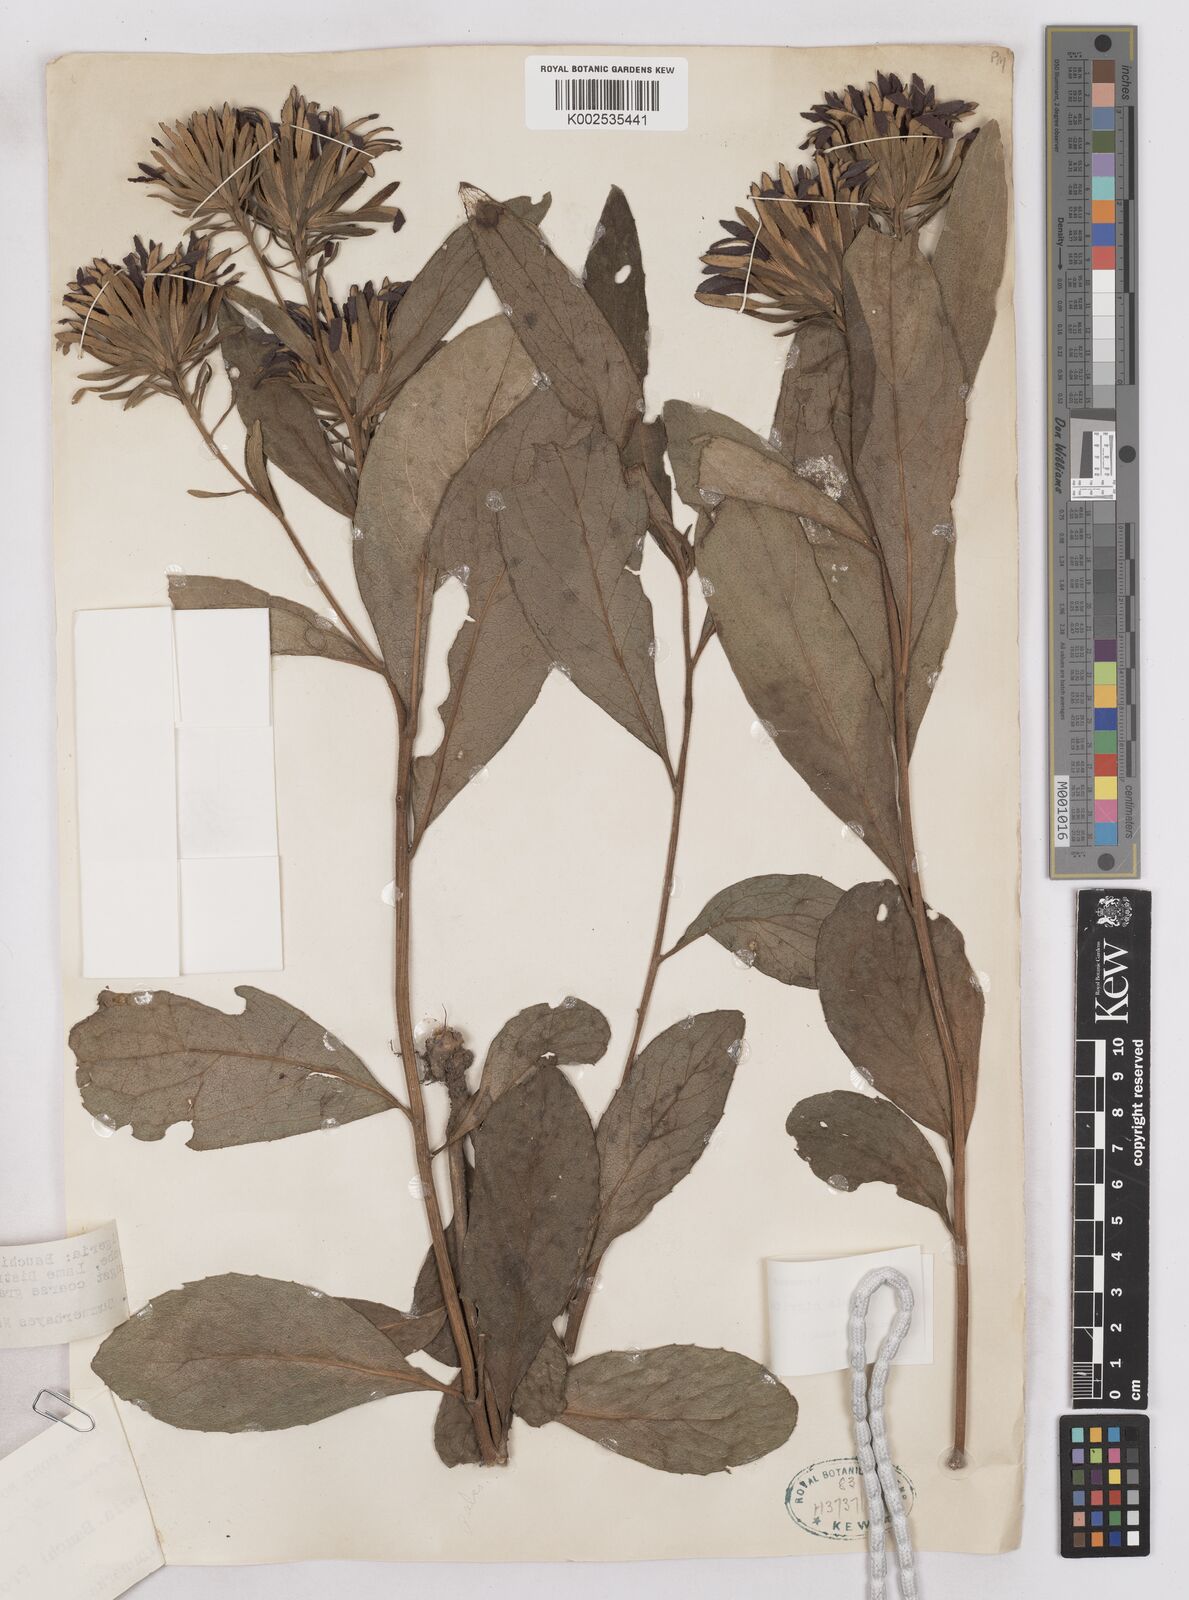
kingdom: Plantae
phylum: Tracheophyta
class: Magnoliopsida
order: Asterales
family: Asteraceae
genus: Linzia
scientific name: Linzia nigritiana
